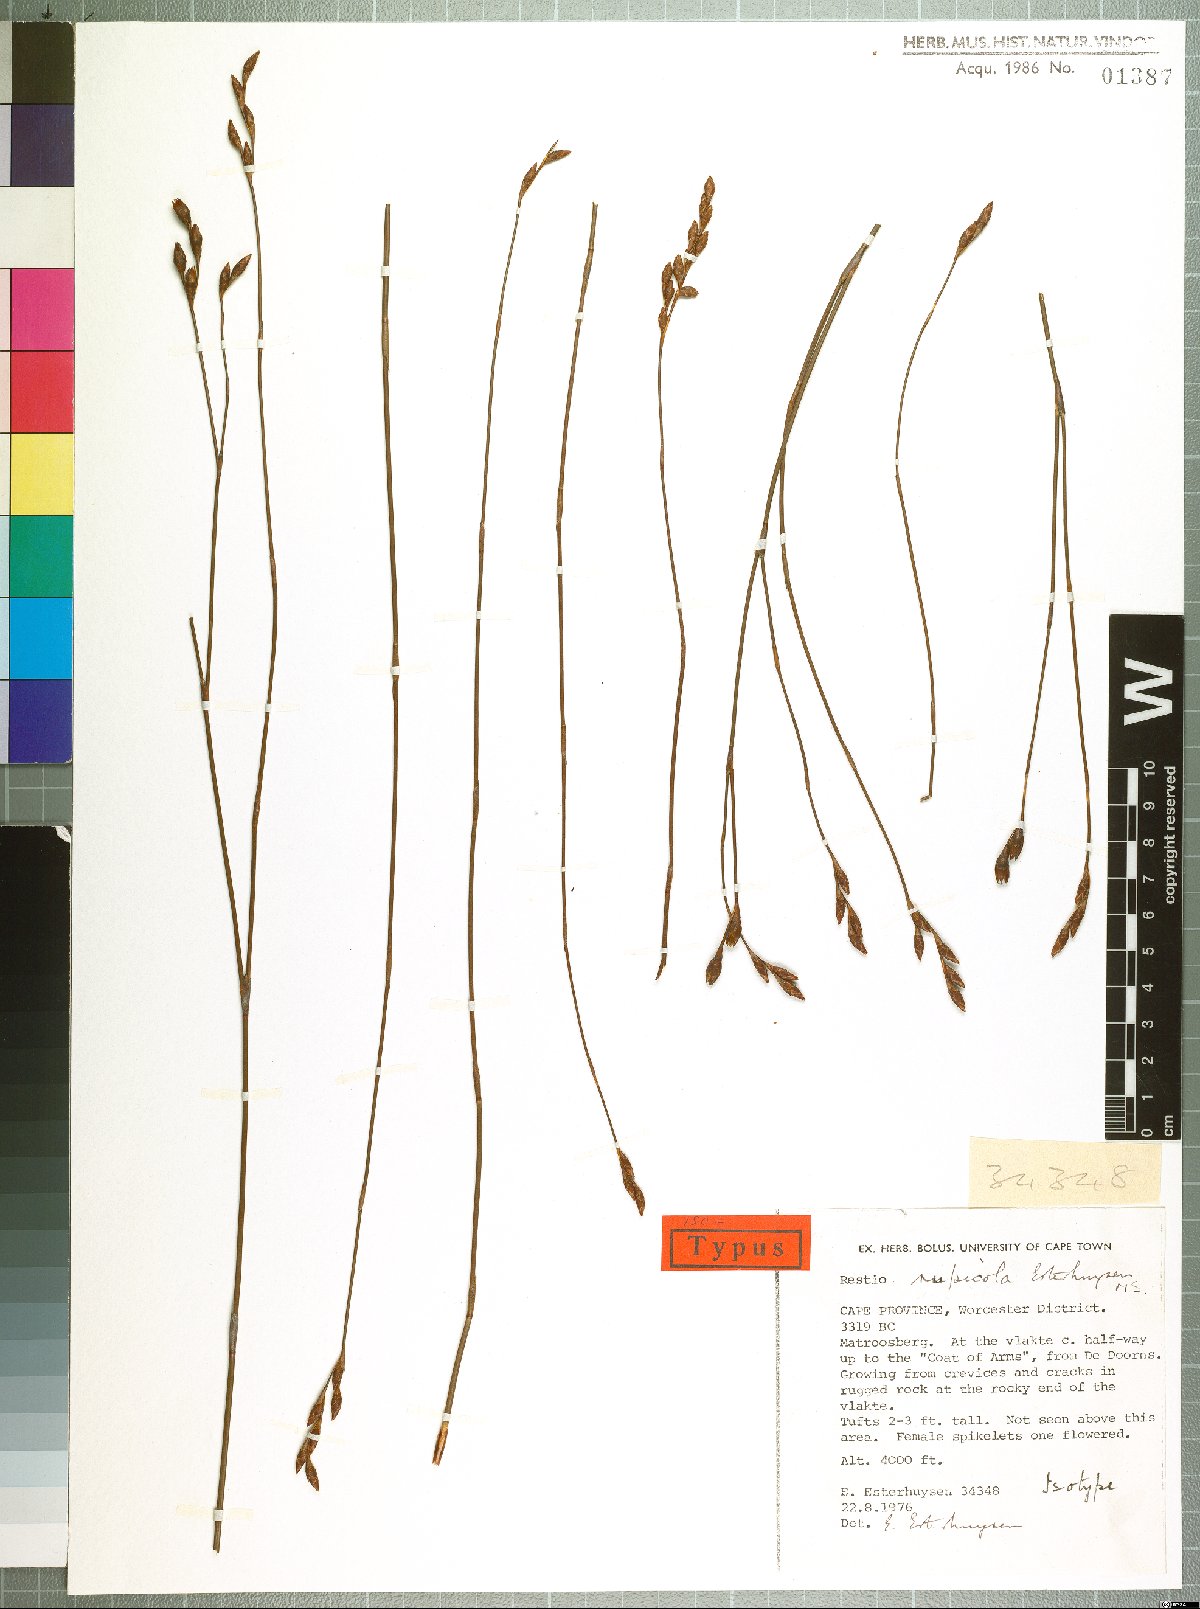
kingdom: Plantae
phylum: Tracheophyta
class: Liliopsida
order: Poales
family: Restionaceae
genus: Restio
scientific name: Restio rupicola
